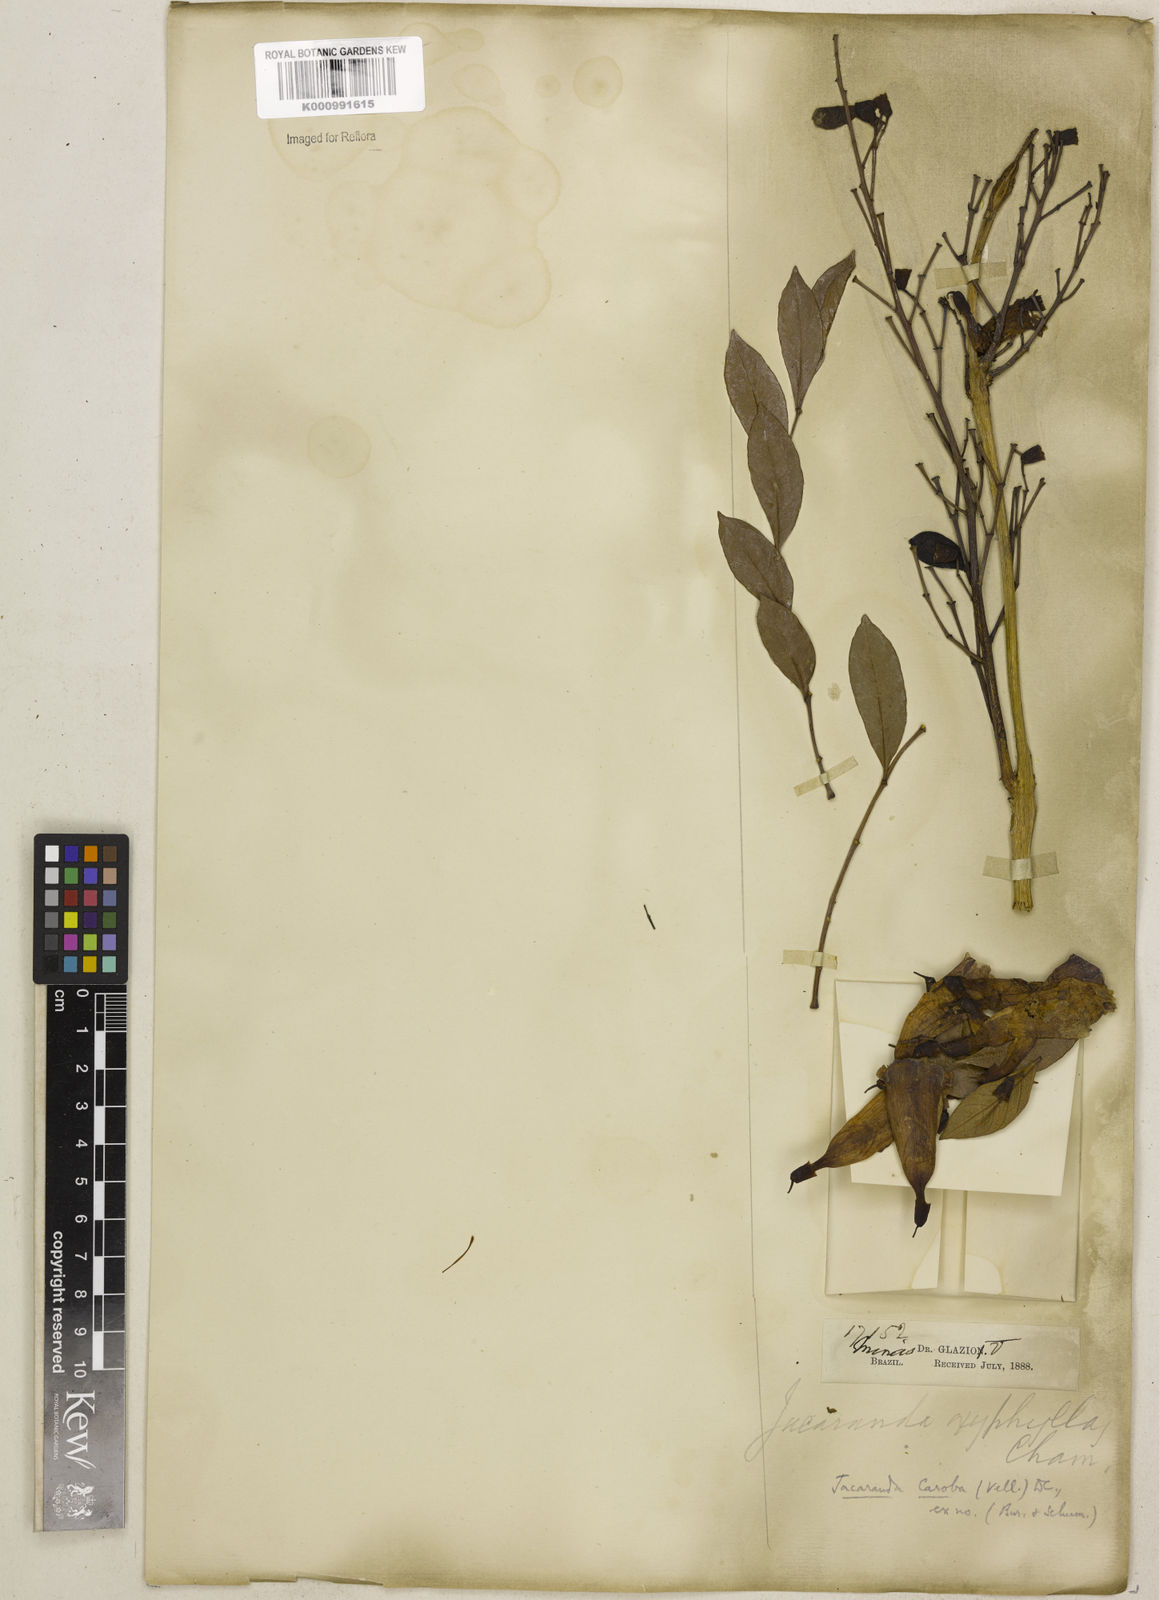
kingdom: Plantae
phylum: Tracheophyta
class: Magnoliopsida
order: Lamiales
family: Bignoniaceae
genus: Jacaranda
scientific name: Jacaranda caroba
